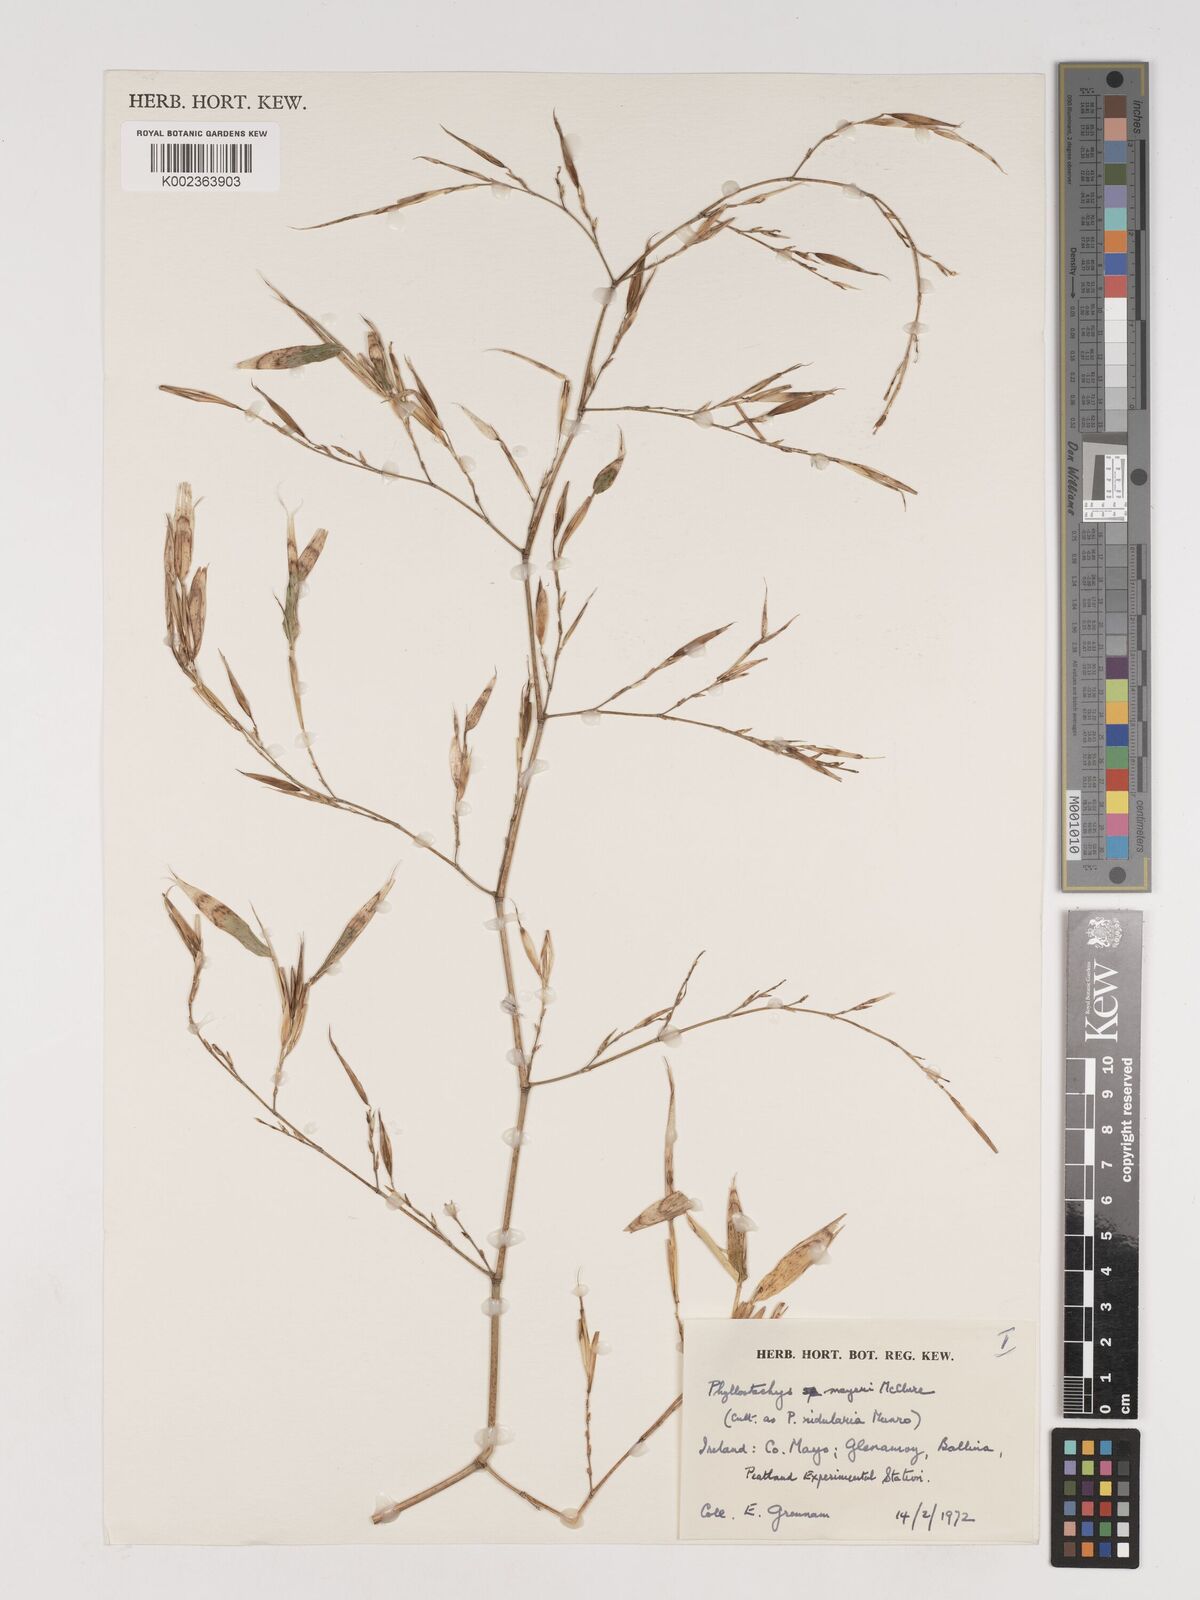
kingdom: Plantae
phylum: Tracheophyta
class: Liliopsida
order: Poales
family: Poaceae
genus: Phyllostachys
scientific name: Phyllostachys meyeri
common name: Meyer's bamboo
